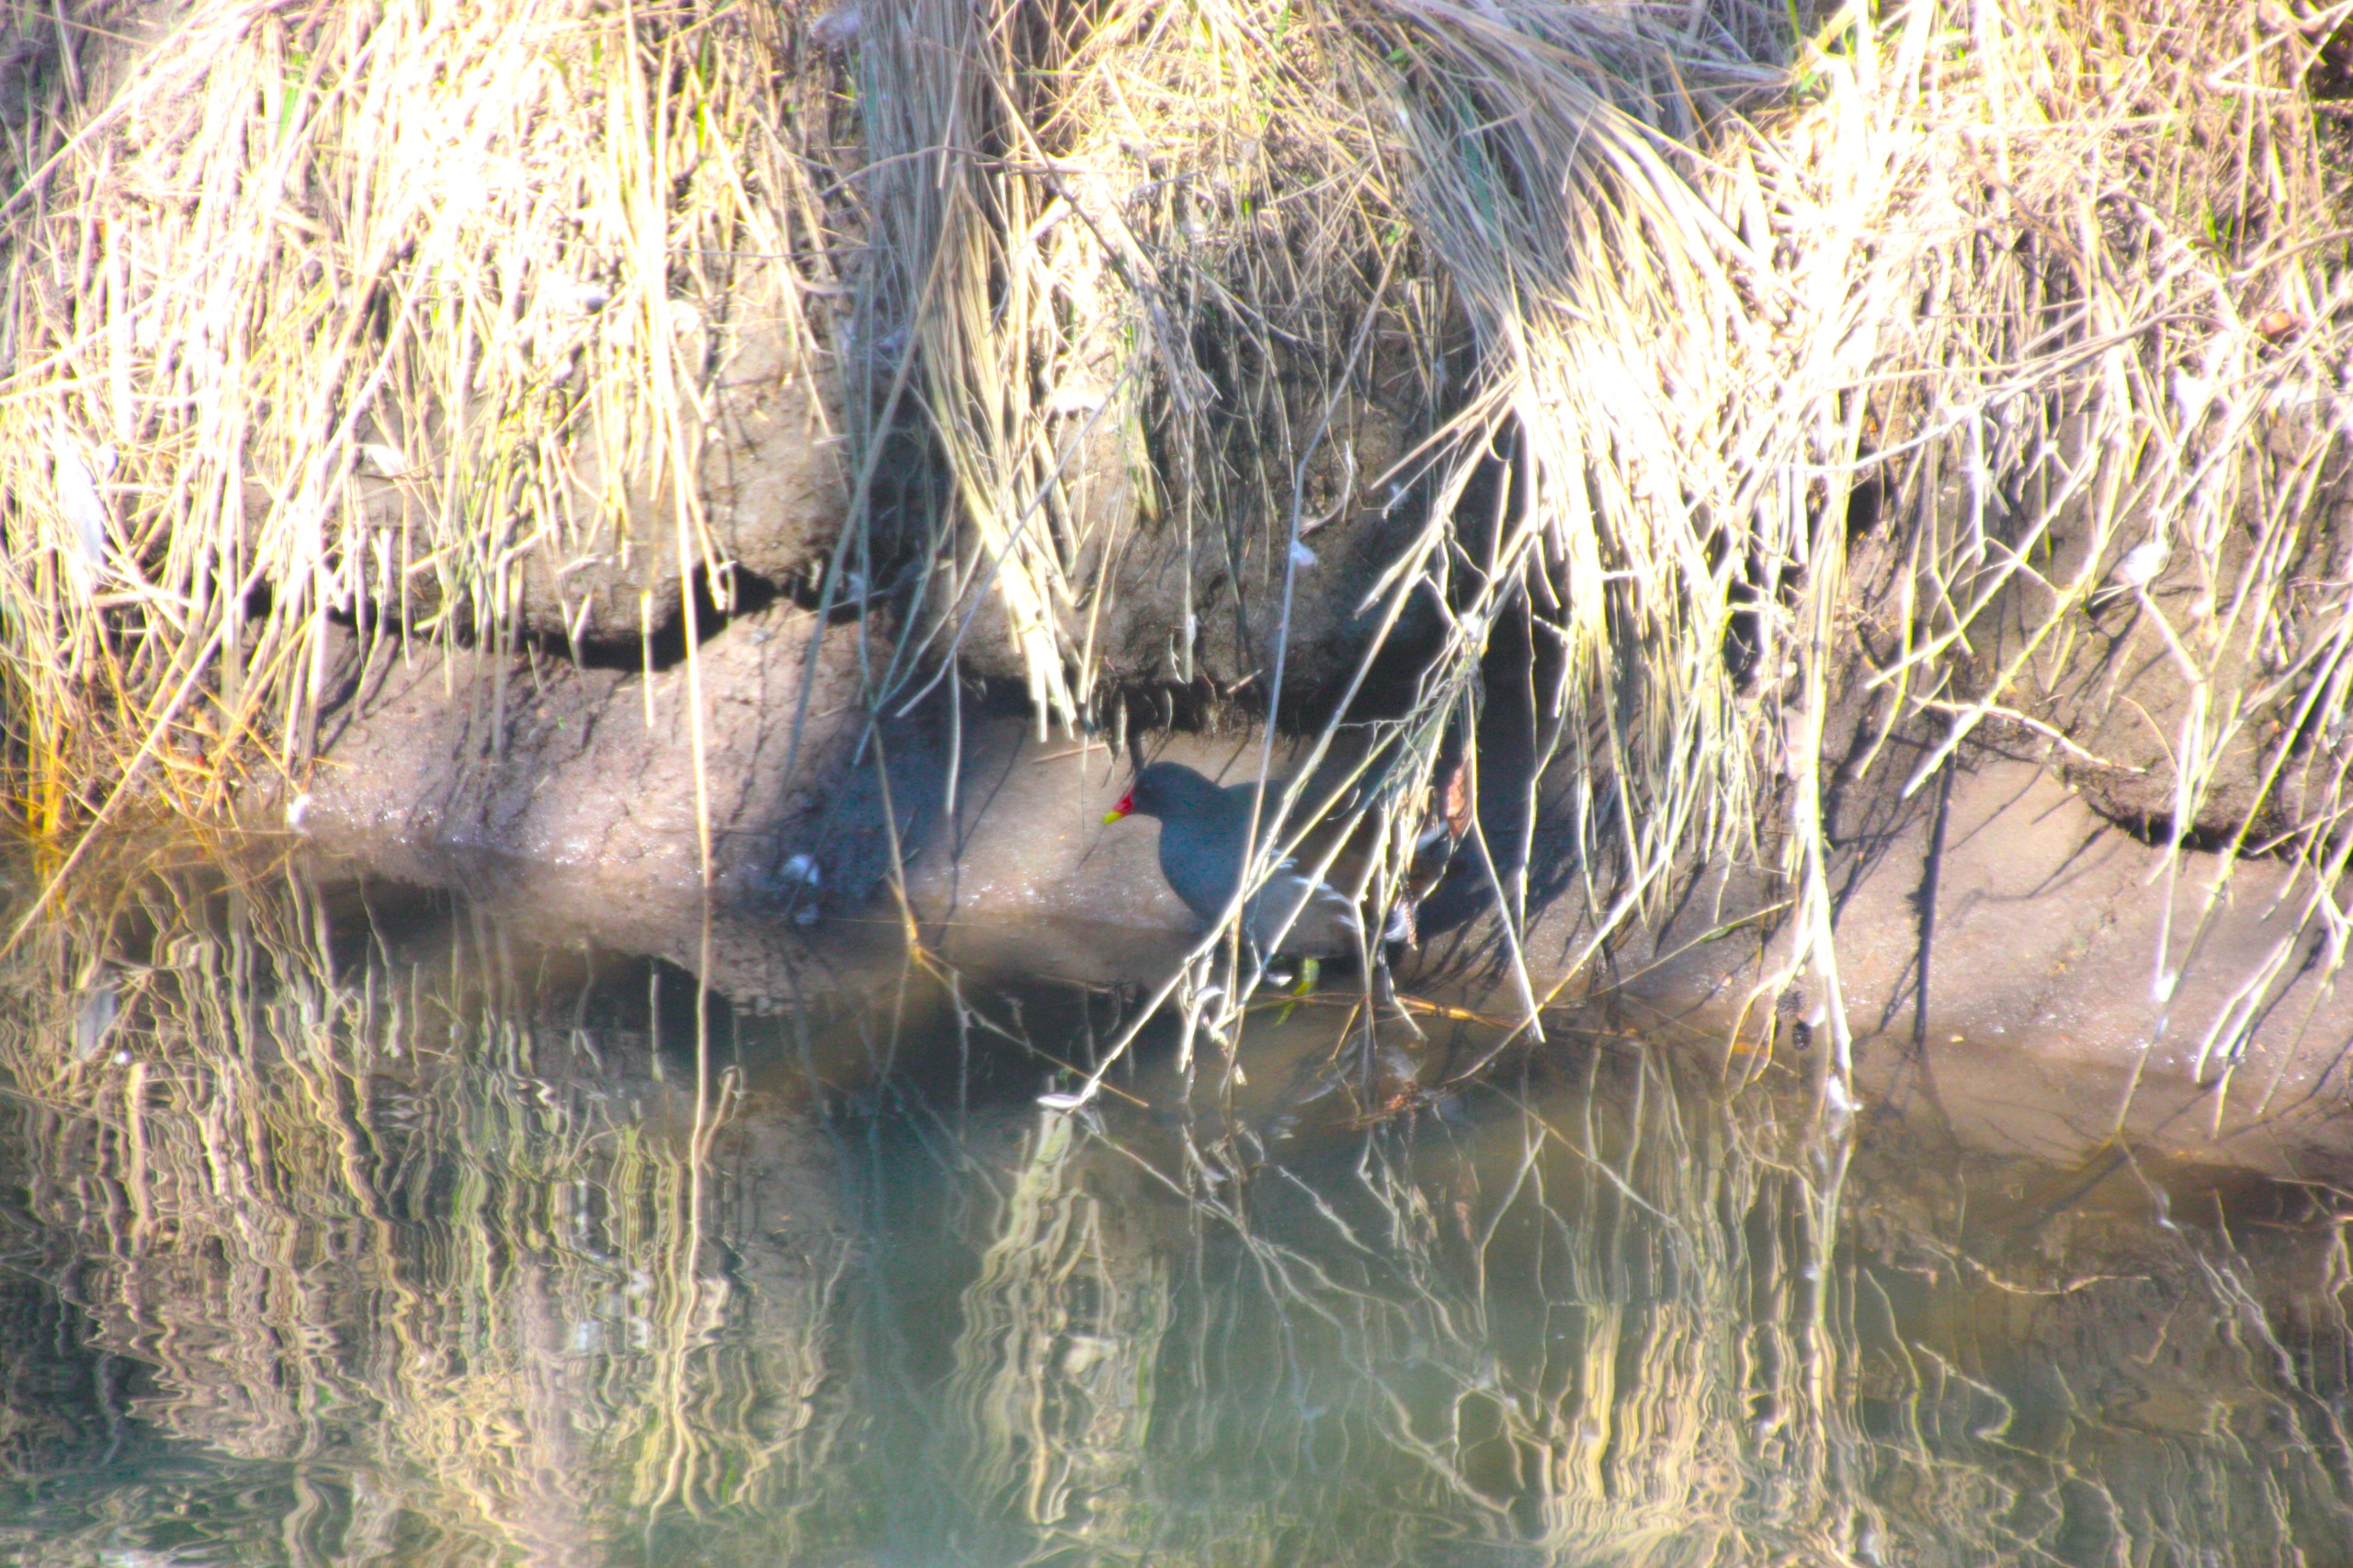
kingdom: Animalia
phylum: Chordata
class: Aves
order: Gruiformes
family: Rallidae
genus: Gallinula
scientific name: Gallinula chloropus
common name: Grønbenet rørhøne
